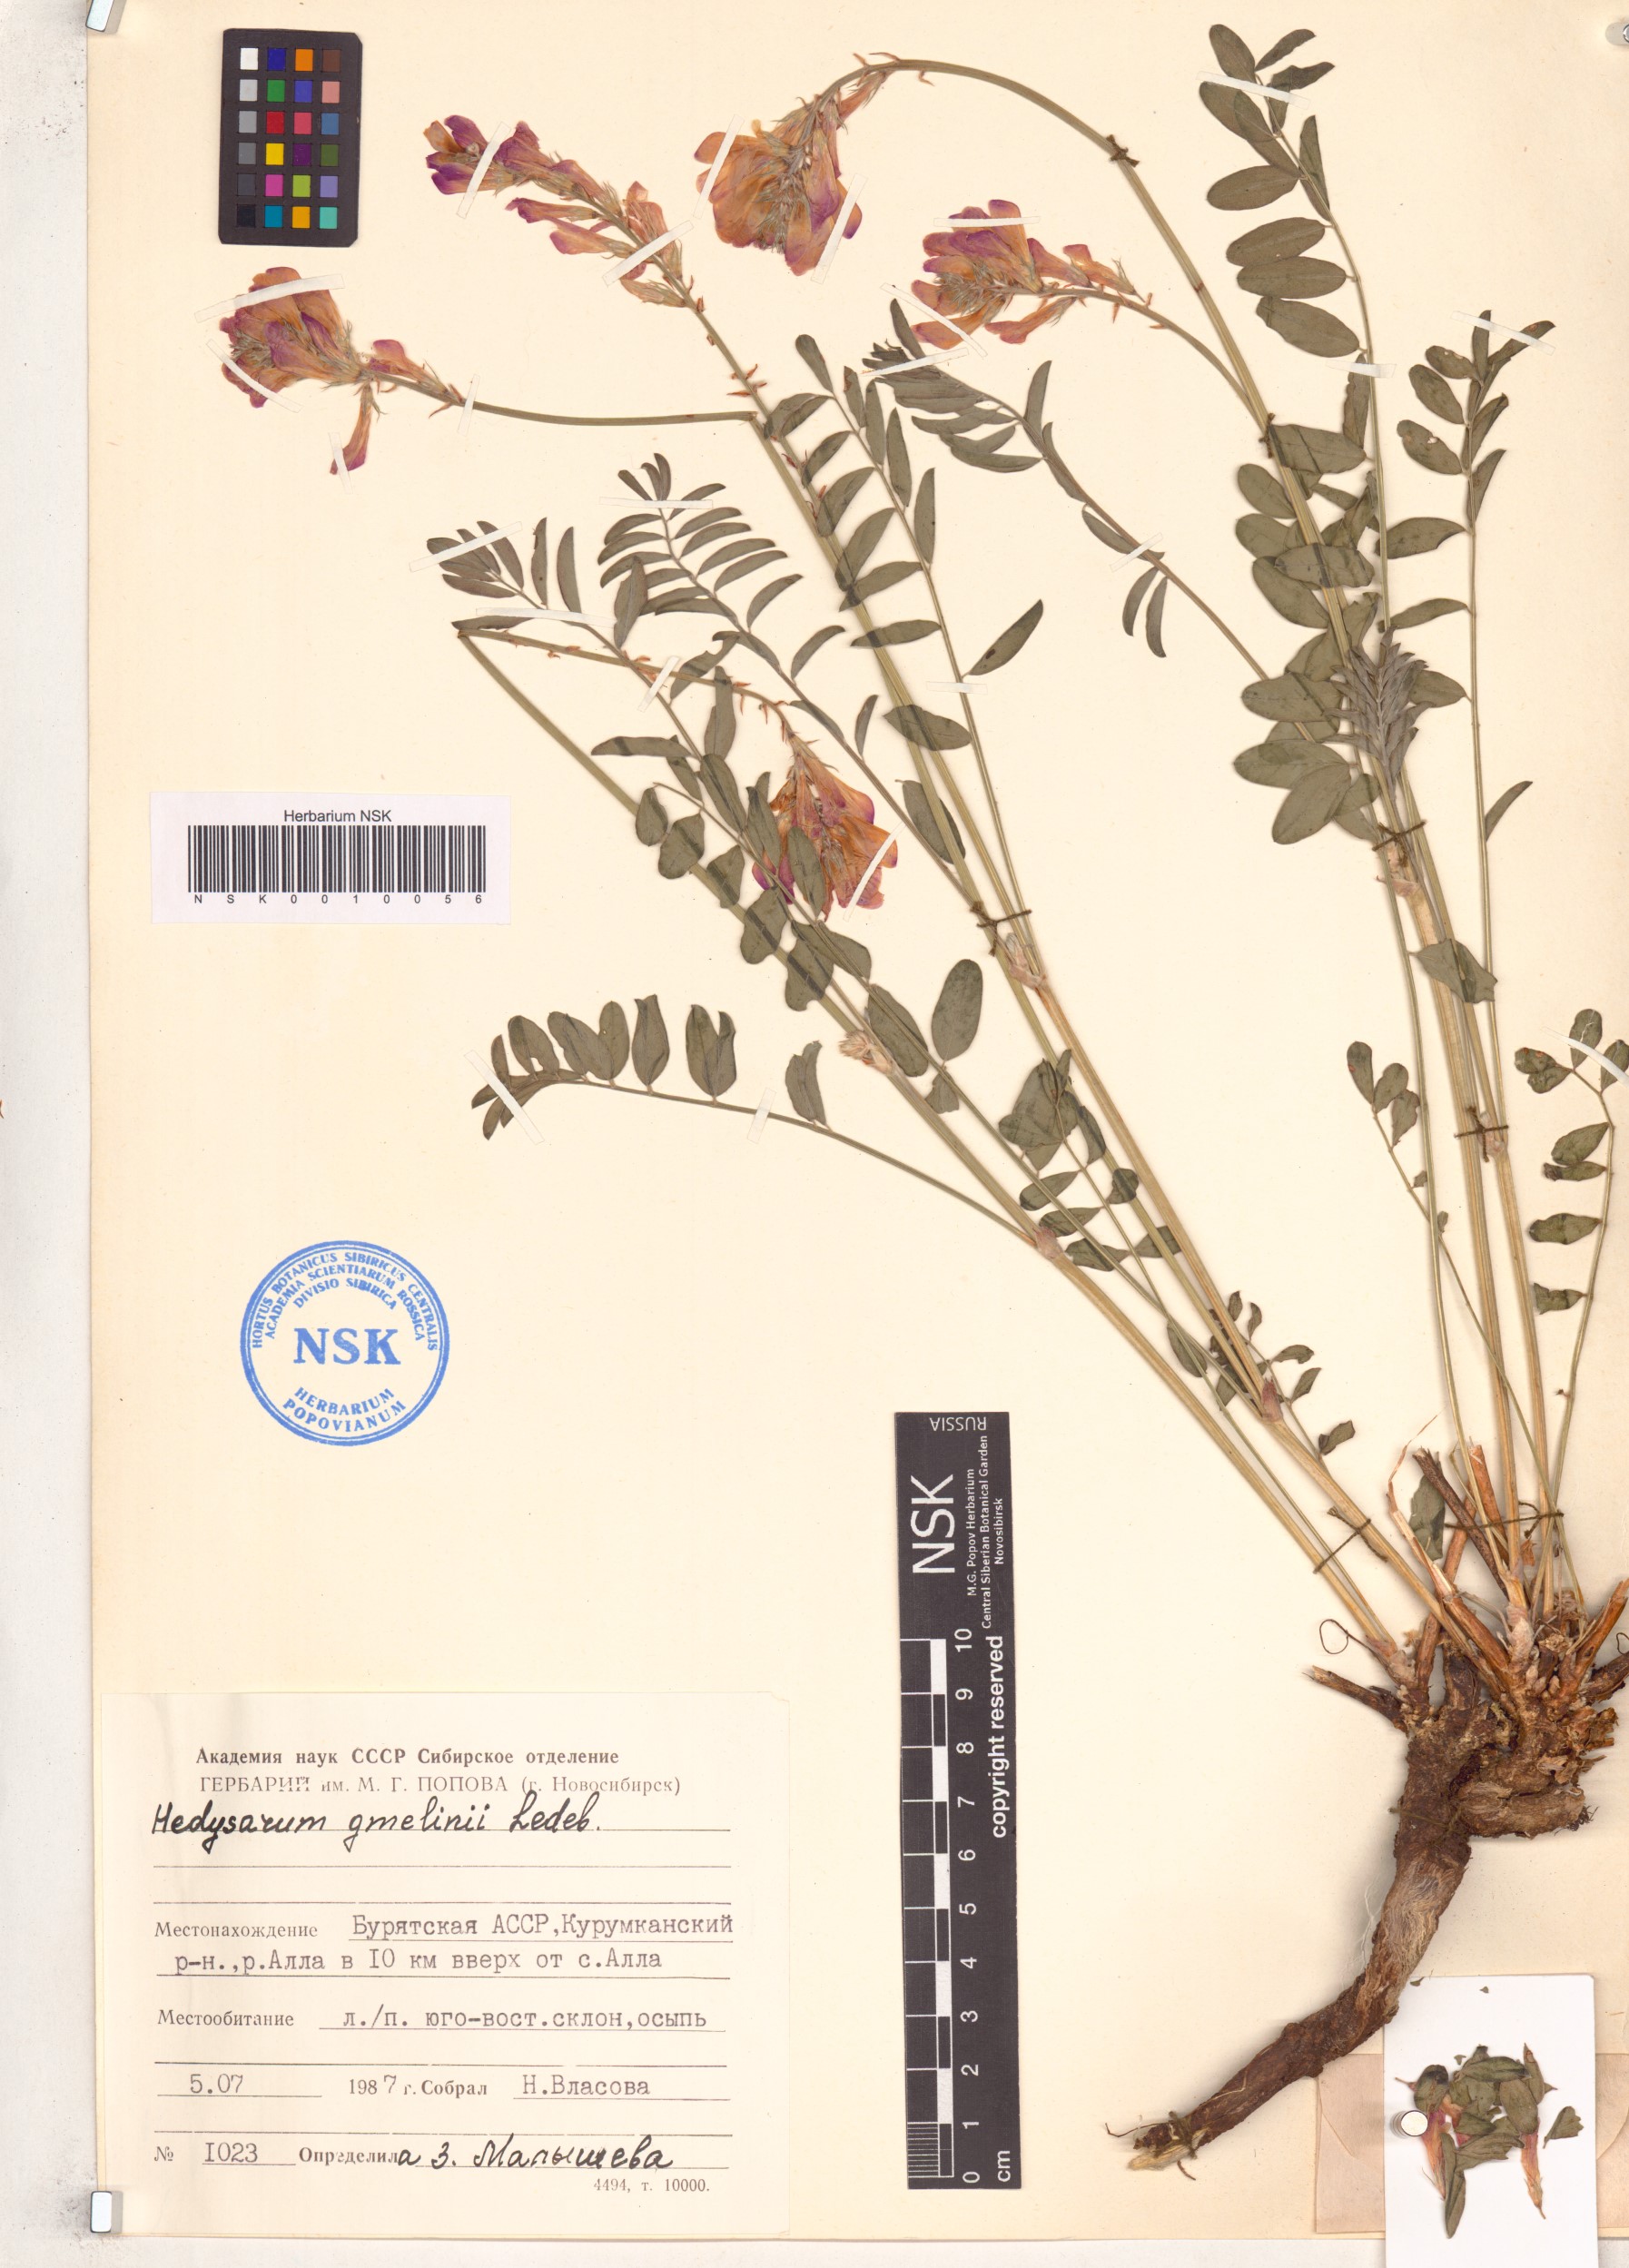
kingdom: Plantae
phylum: Tracheophyta
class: Magnoliopsida
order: Fabales
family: Fabaceae
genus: Hedysarum
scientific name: Hedysarum gmelinii
